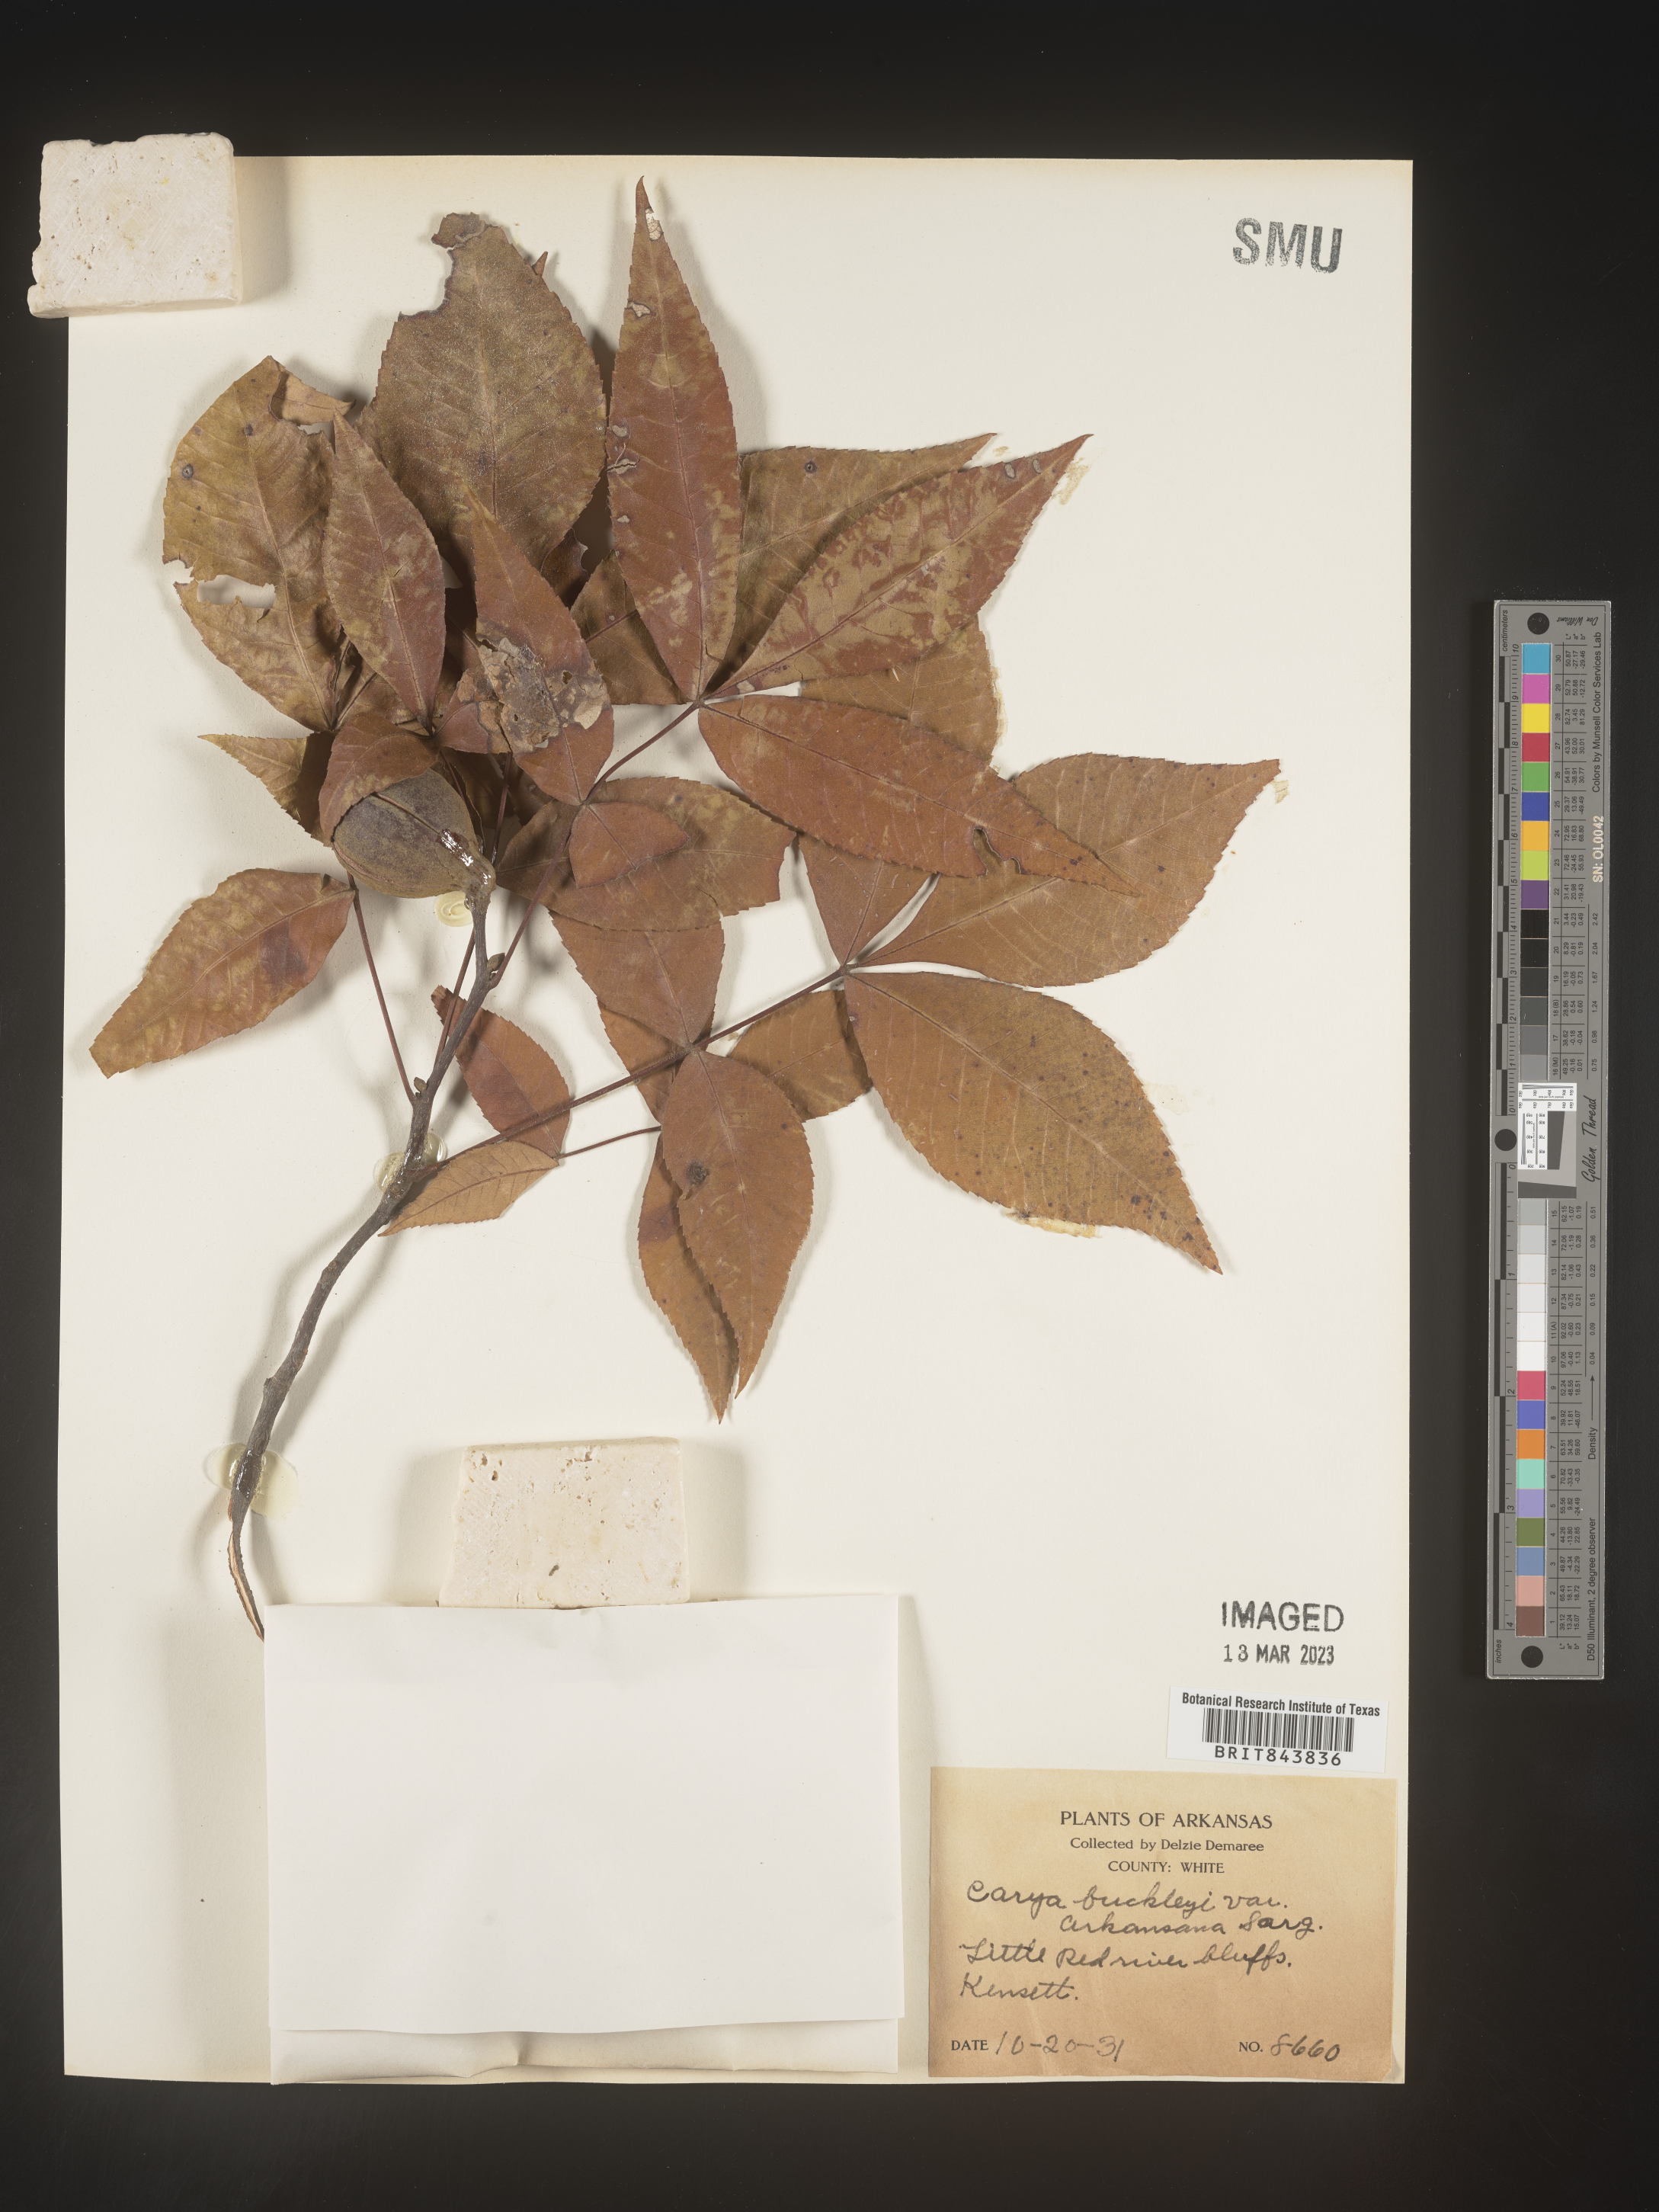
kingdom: Plantae
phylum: Tracheophyta
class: Magnoliopsida
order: Fagales
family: Juglandaceae
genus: Carya
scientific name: Carya texana
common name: Black hickory
